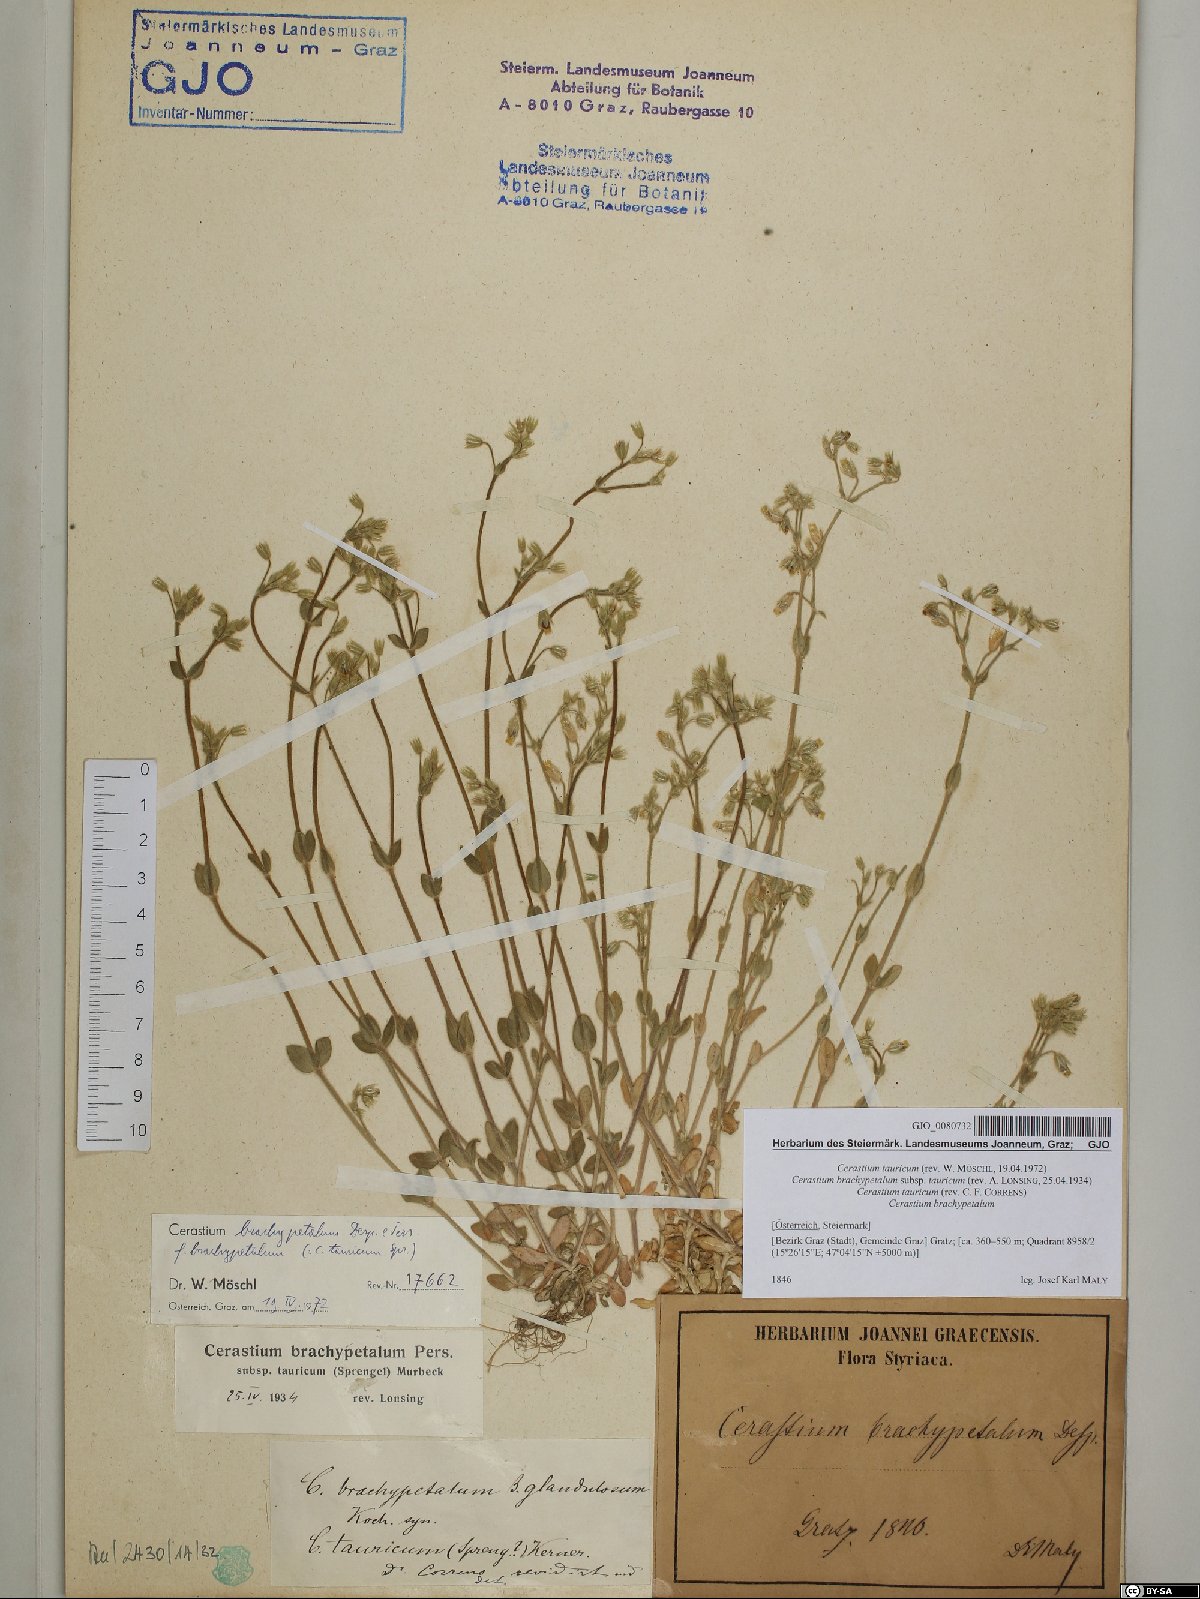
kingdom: Plantae
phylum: Tracheophyta
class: Magnoliopsida
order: Caryophyllales
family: Caryophyllaceae
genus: Cerastium
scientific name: Cerastium brachypetalum
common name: Grey mouse-ear
